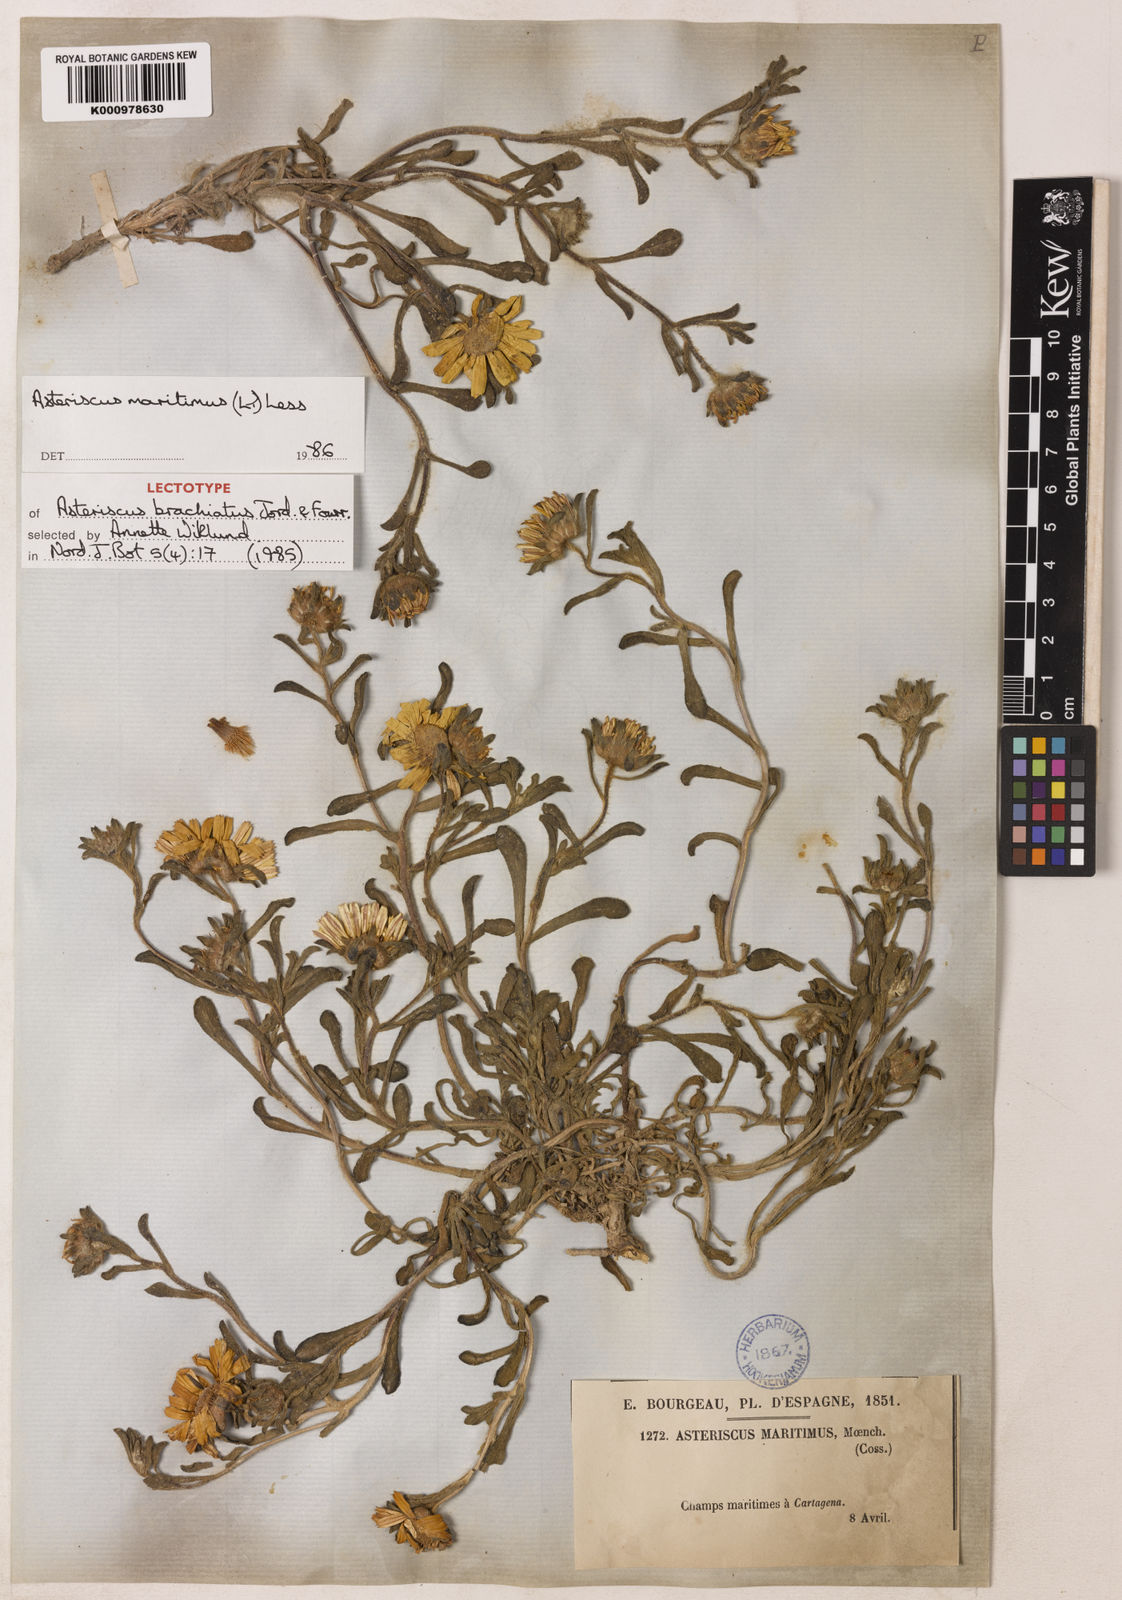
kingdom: Plantae
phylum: Tracheophyta
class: Magnoliopsida
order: Asterales
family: Asteraceae
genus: Pallenis
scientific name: Pallenis maritima
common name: Golden coin daisy
